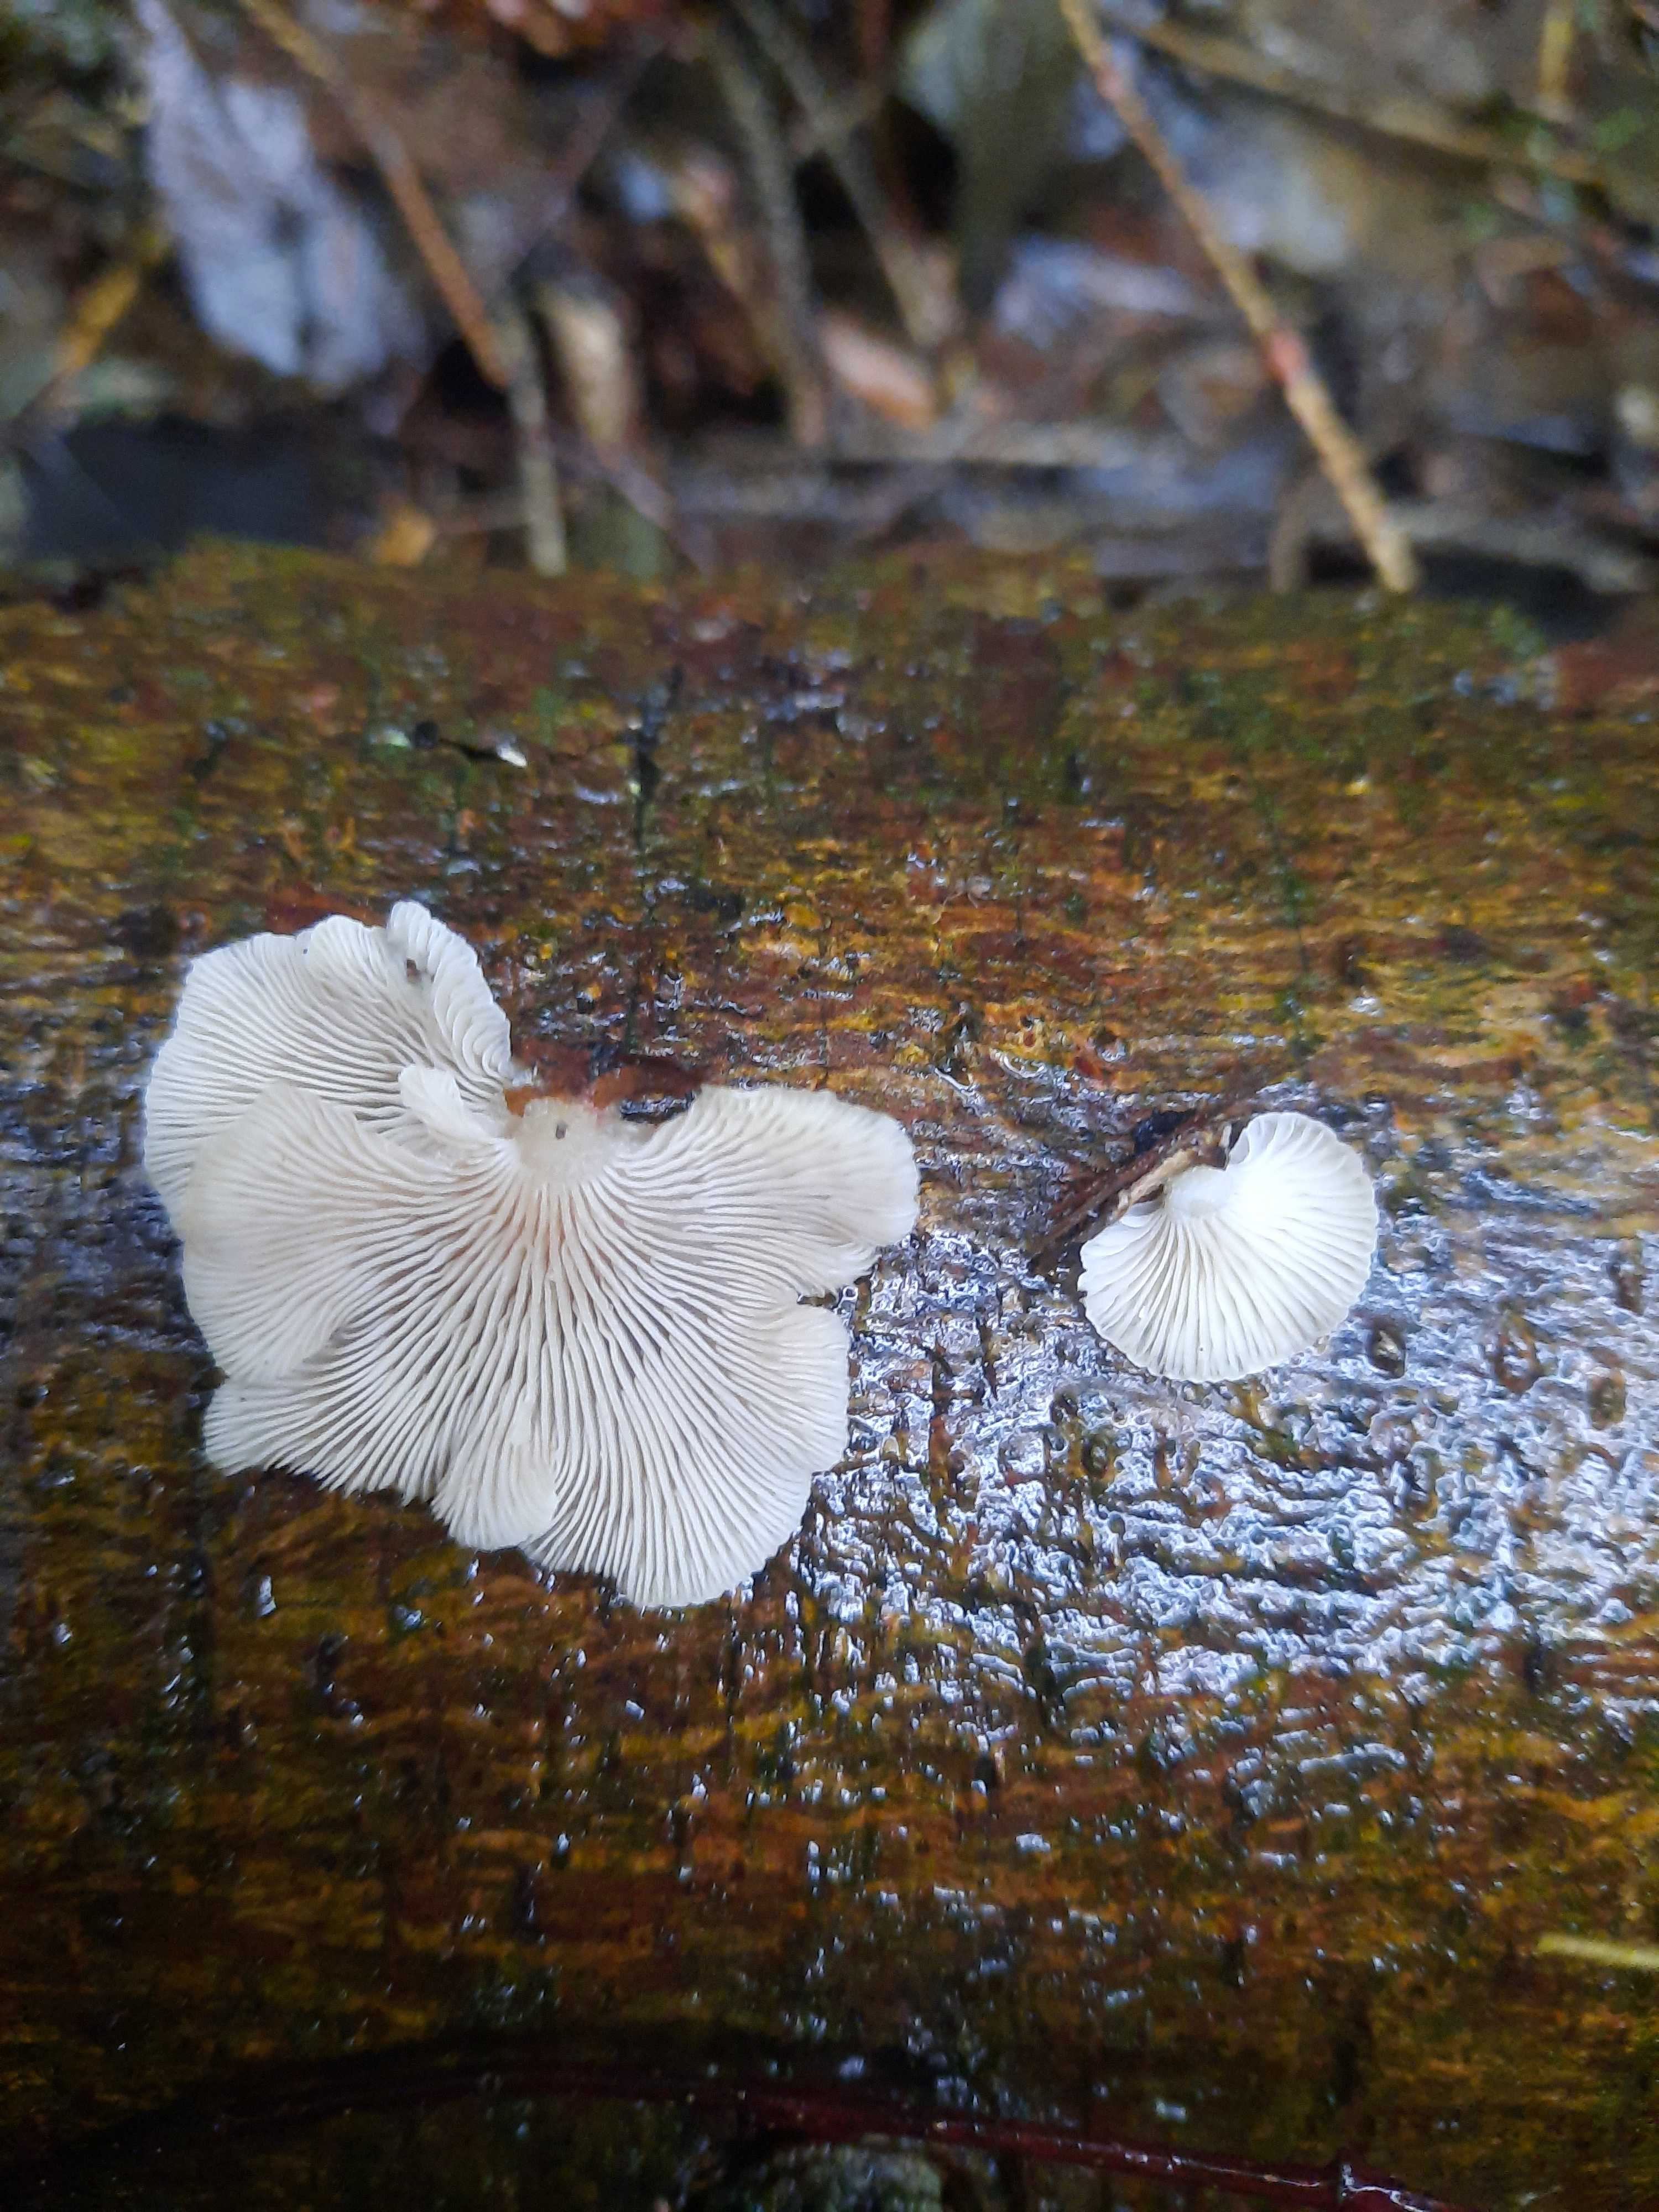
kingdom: Fungi
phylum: Basidiomycota
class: Agaricomycetes
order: Agaricales
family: Mycenaceae
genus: Panellus
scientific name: Panellus mitis
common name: mild epaulethat
